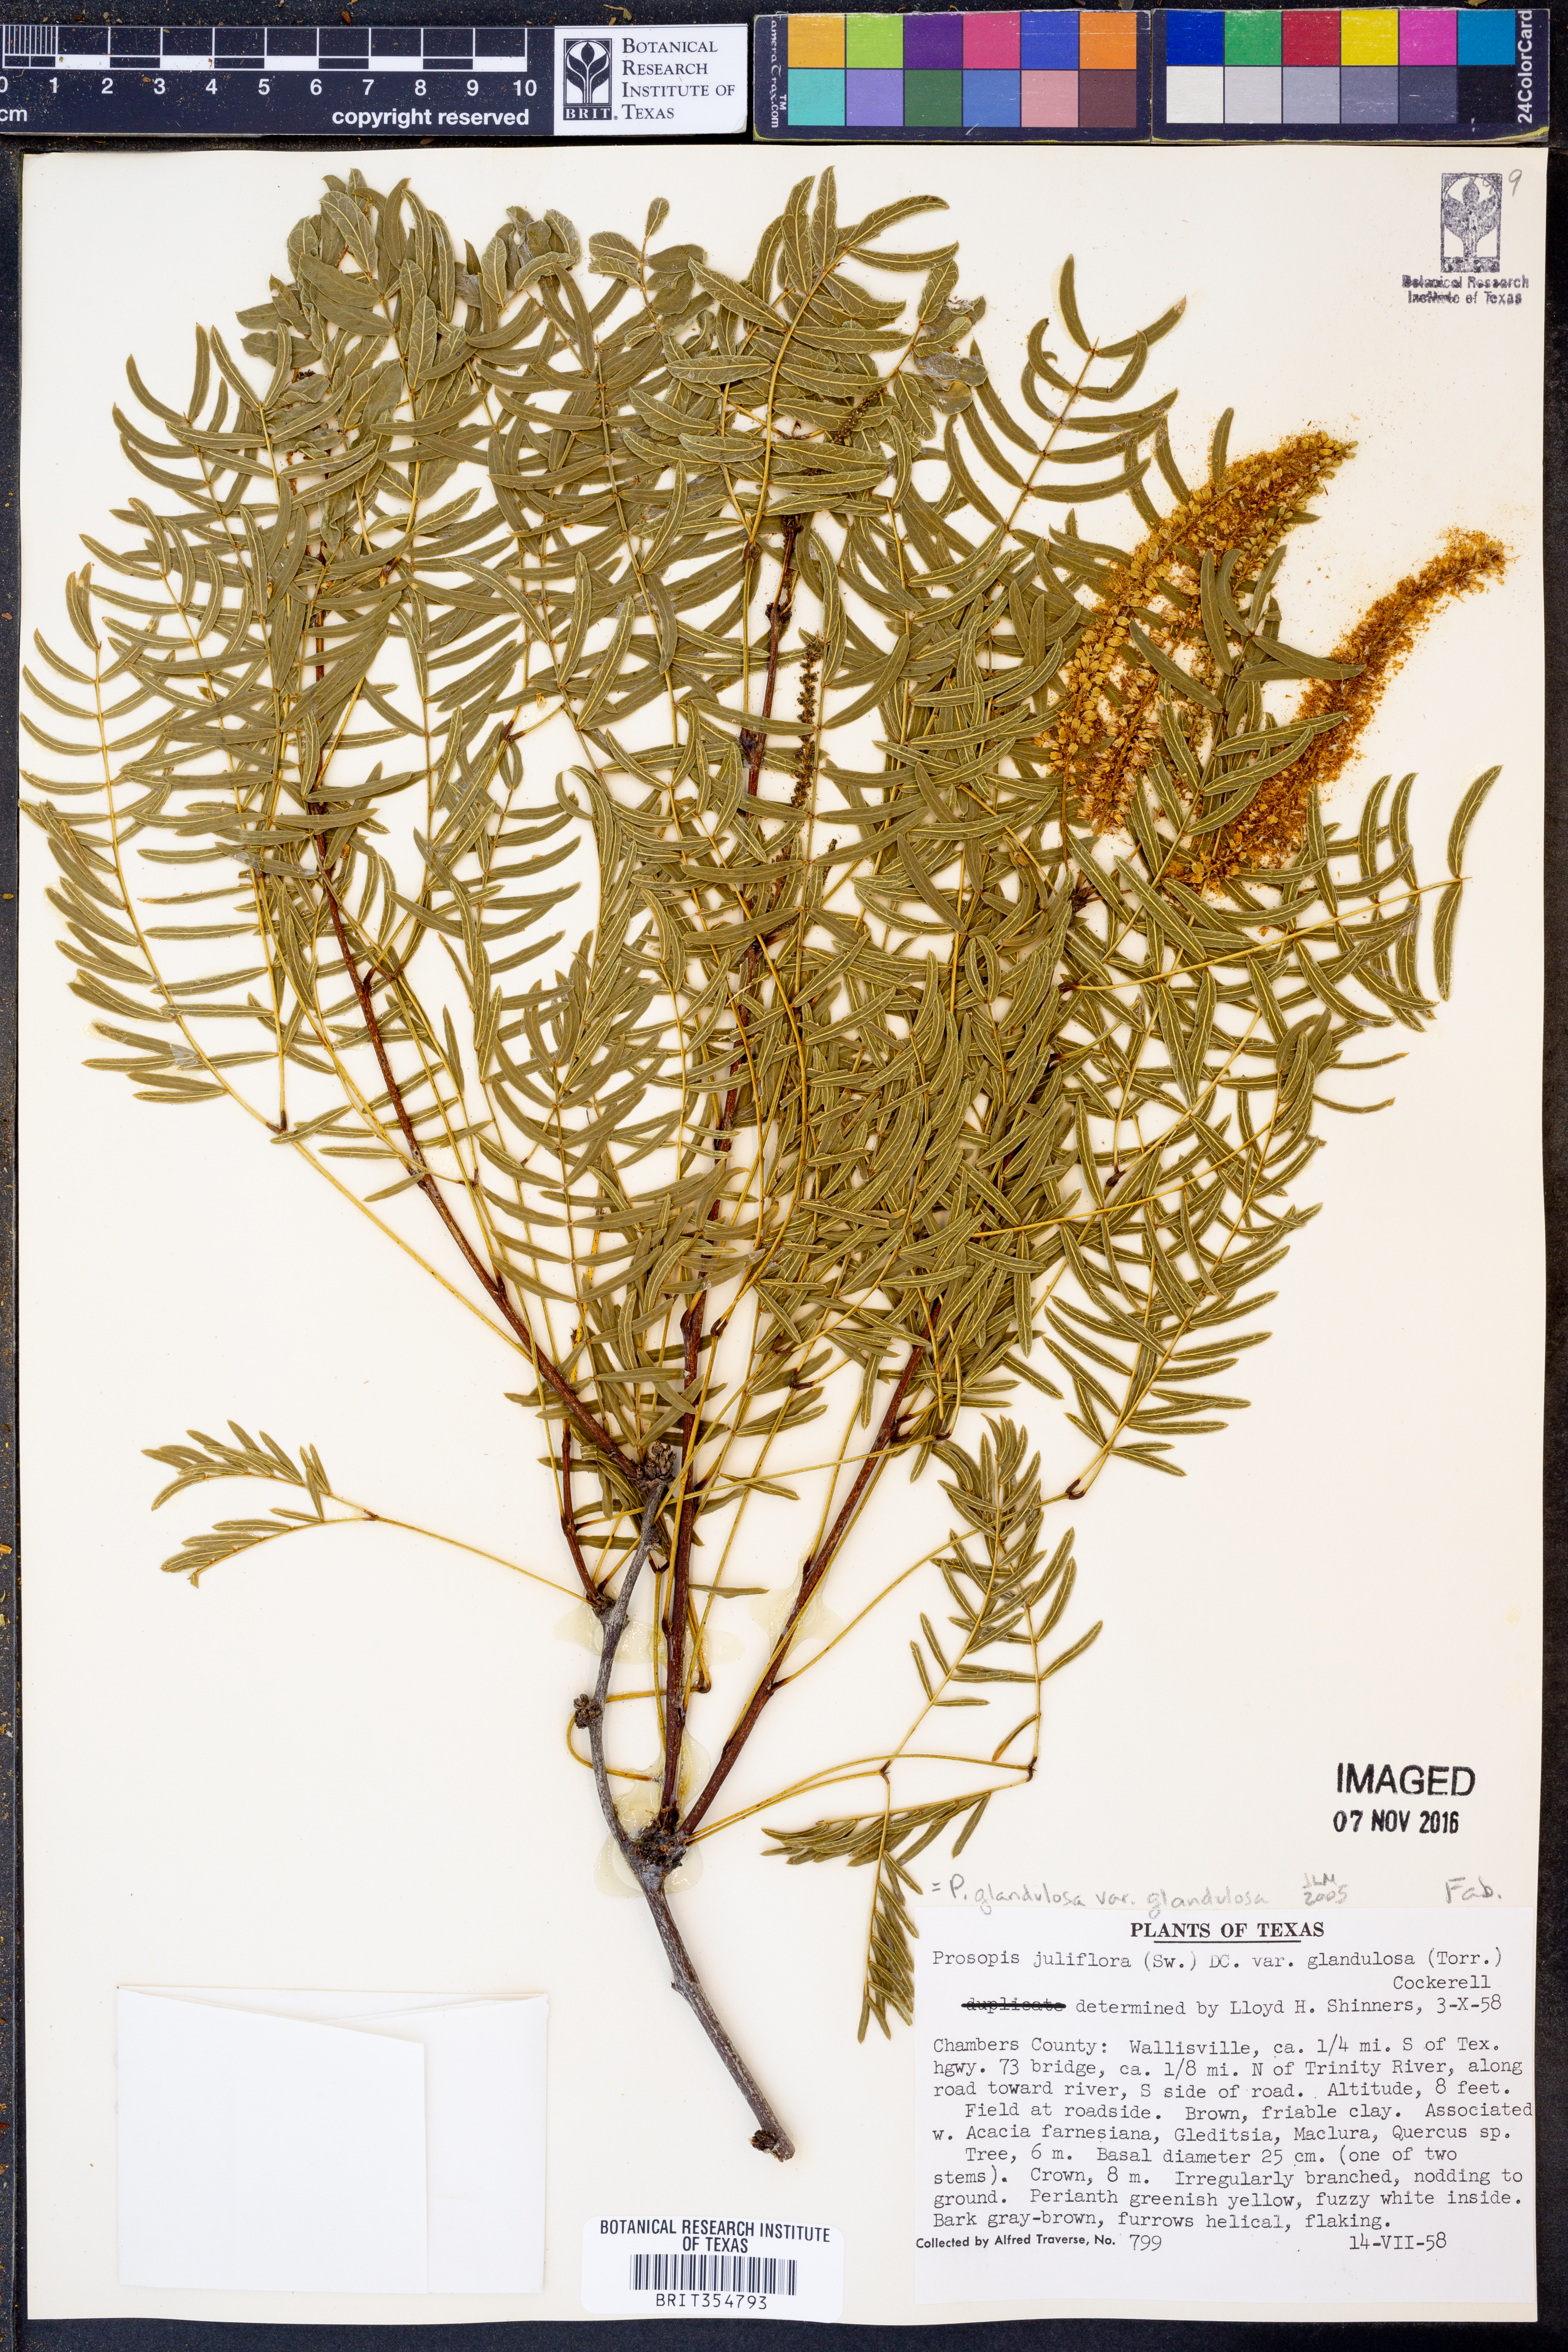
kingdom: Plantae
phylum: Tracheophyta
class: Magnoliopsida
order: Fabales
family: Fabaceae
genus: Prosopis
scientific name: Prosopis glandulosa
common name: Honey mesquite
